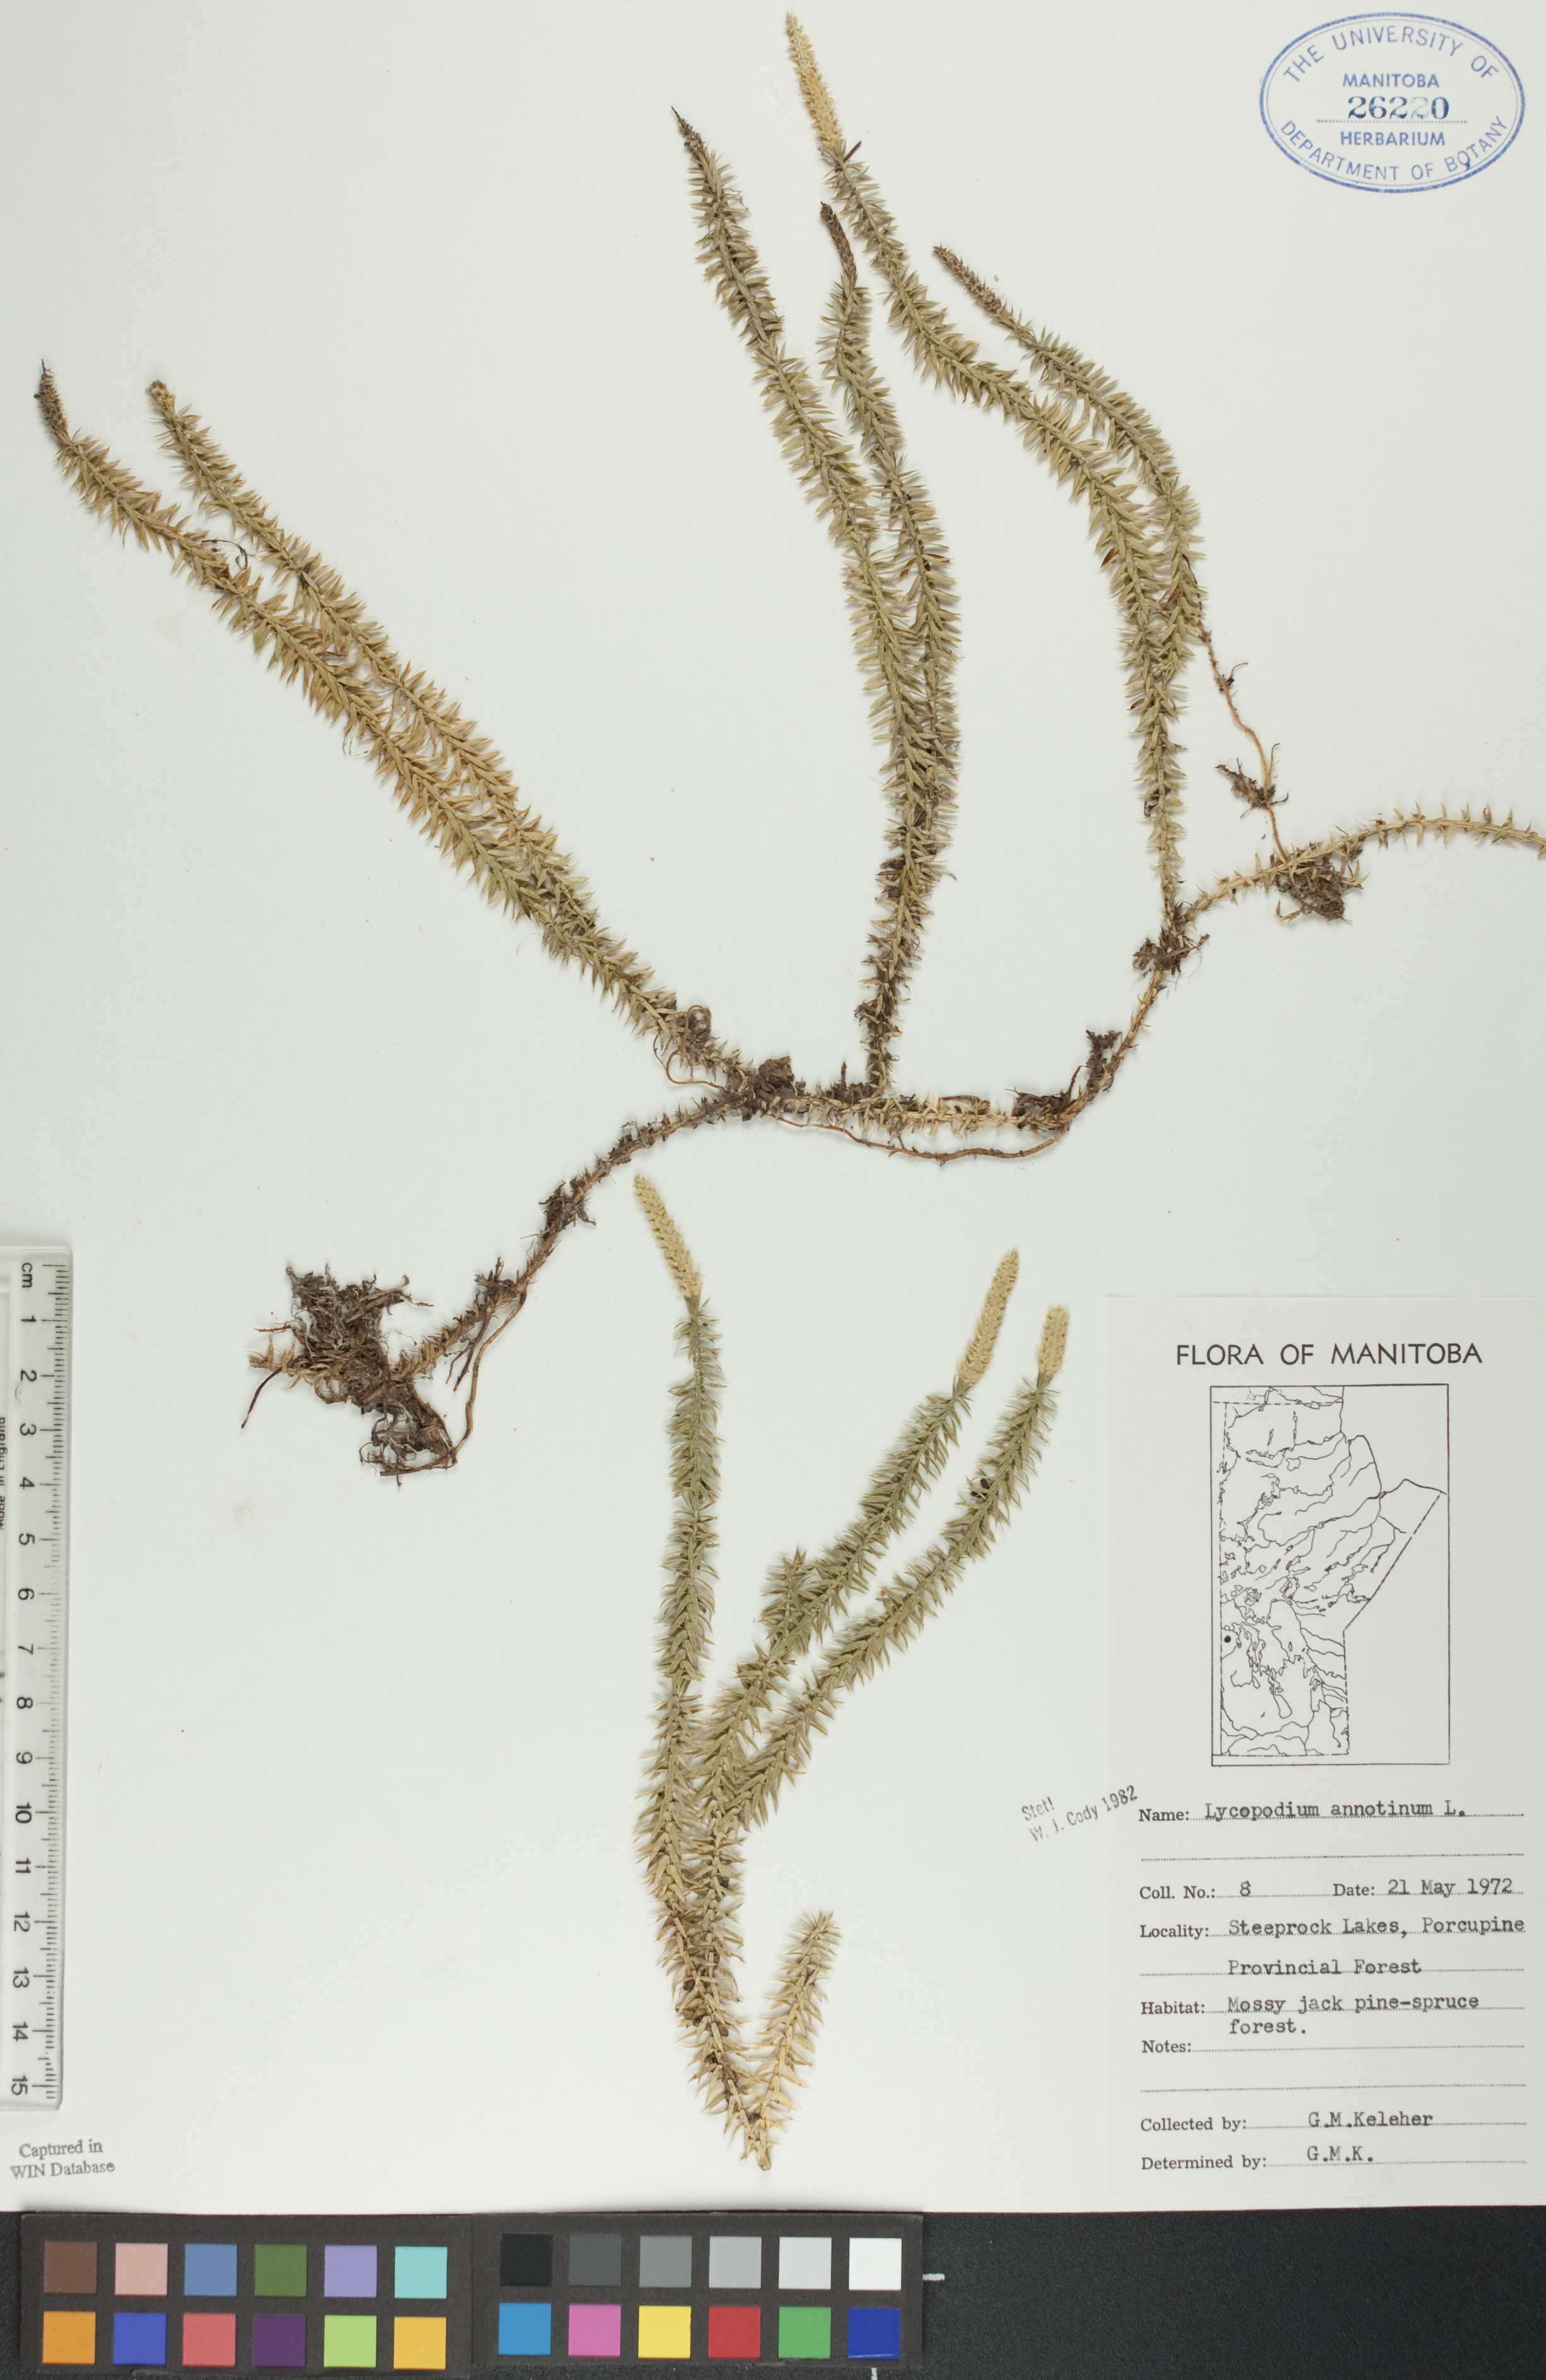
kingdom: Plantae
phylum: Tracheophyta
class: Lycopodiopsida
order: Lycopodiales
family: Lycopodiaceae
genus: Spinulum
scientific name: Spinulum annotinum
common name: Interrupted club-moss
